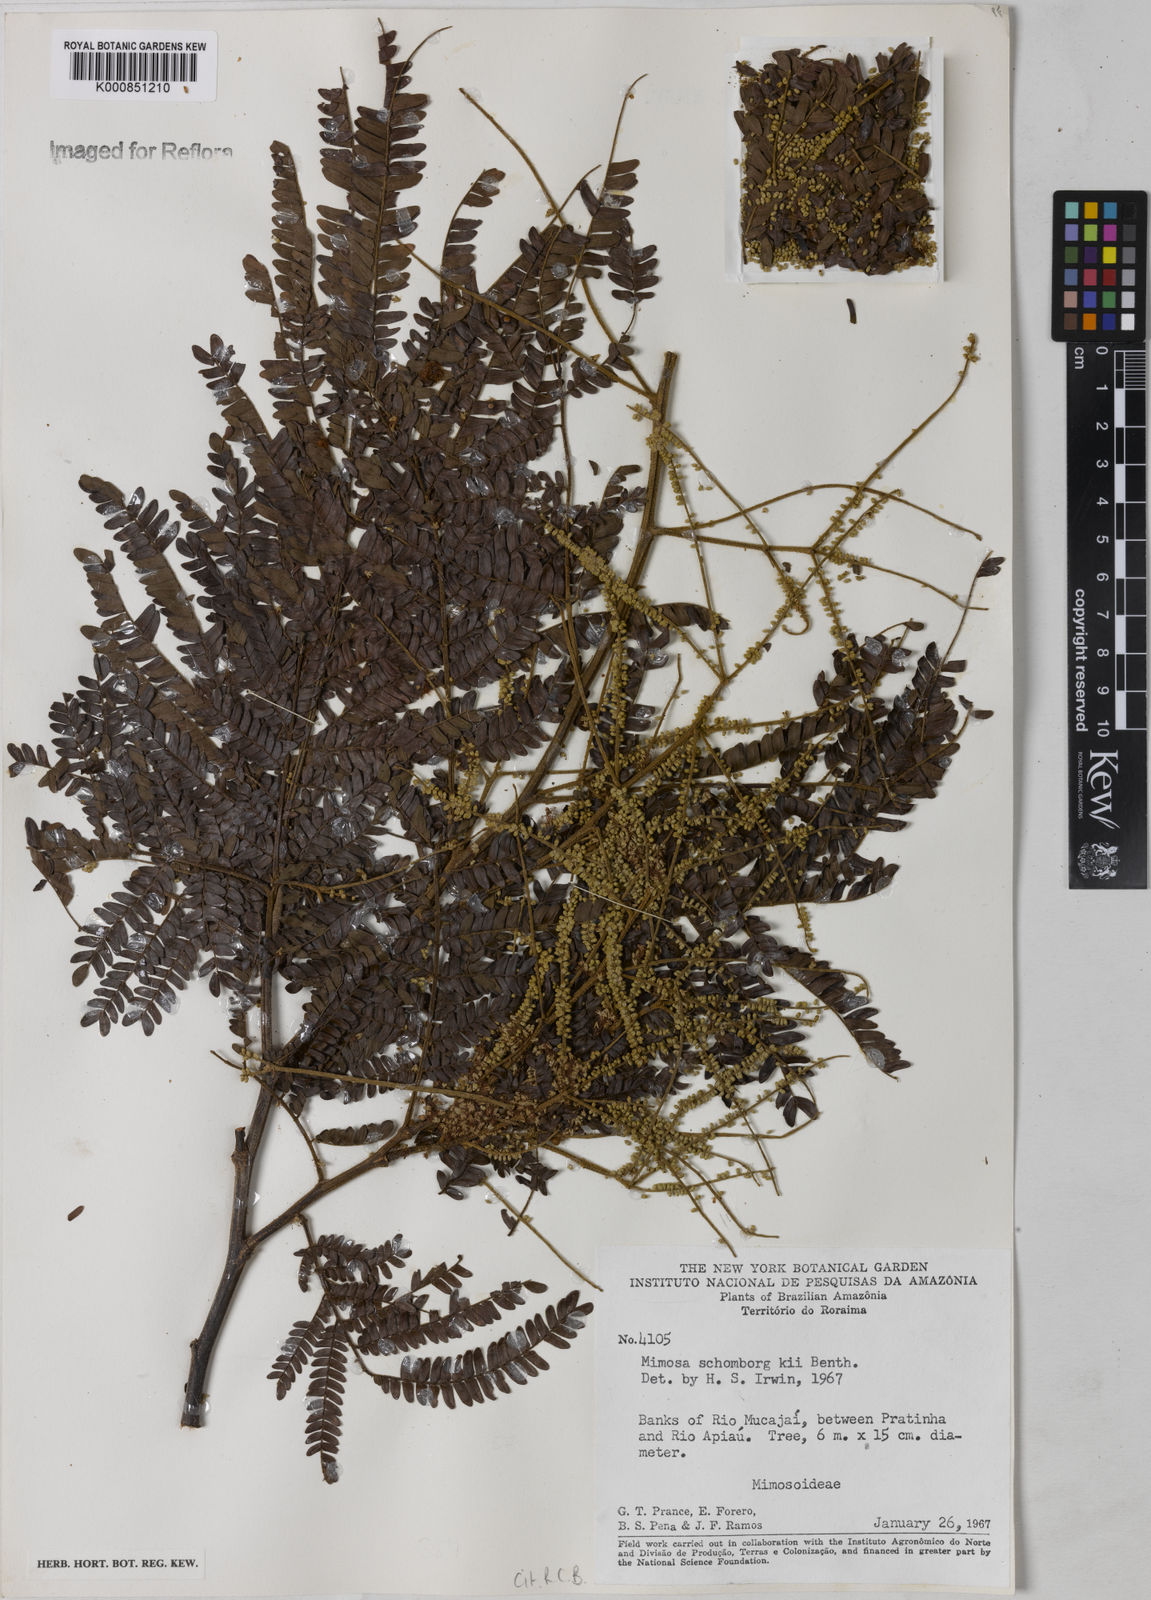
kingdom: Plantae
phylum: Tracheophyta
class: Magnoliopsida
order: Fabales
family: Fabaceae
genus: Mimosa
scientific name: Mimosa schomburgkii
